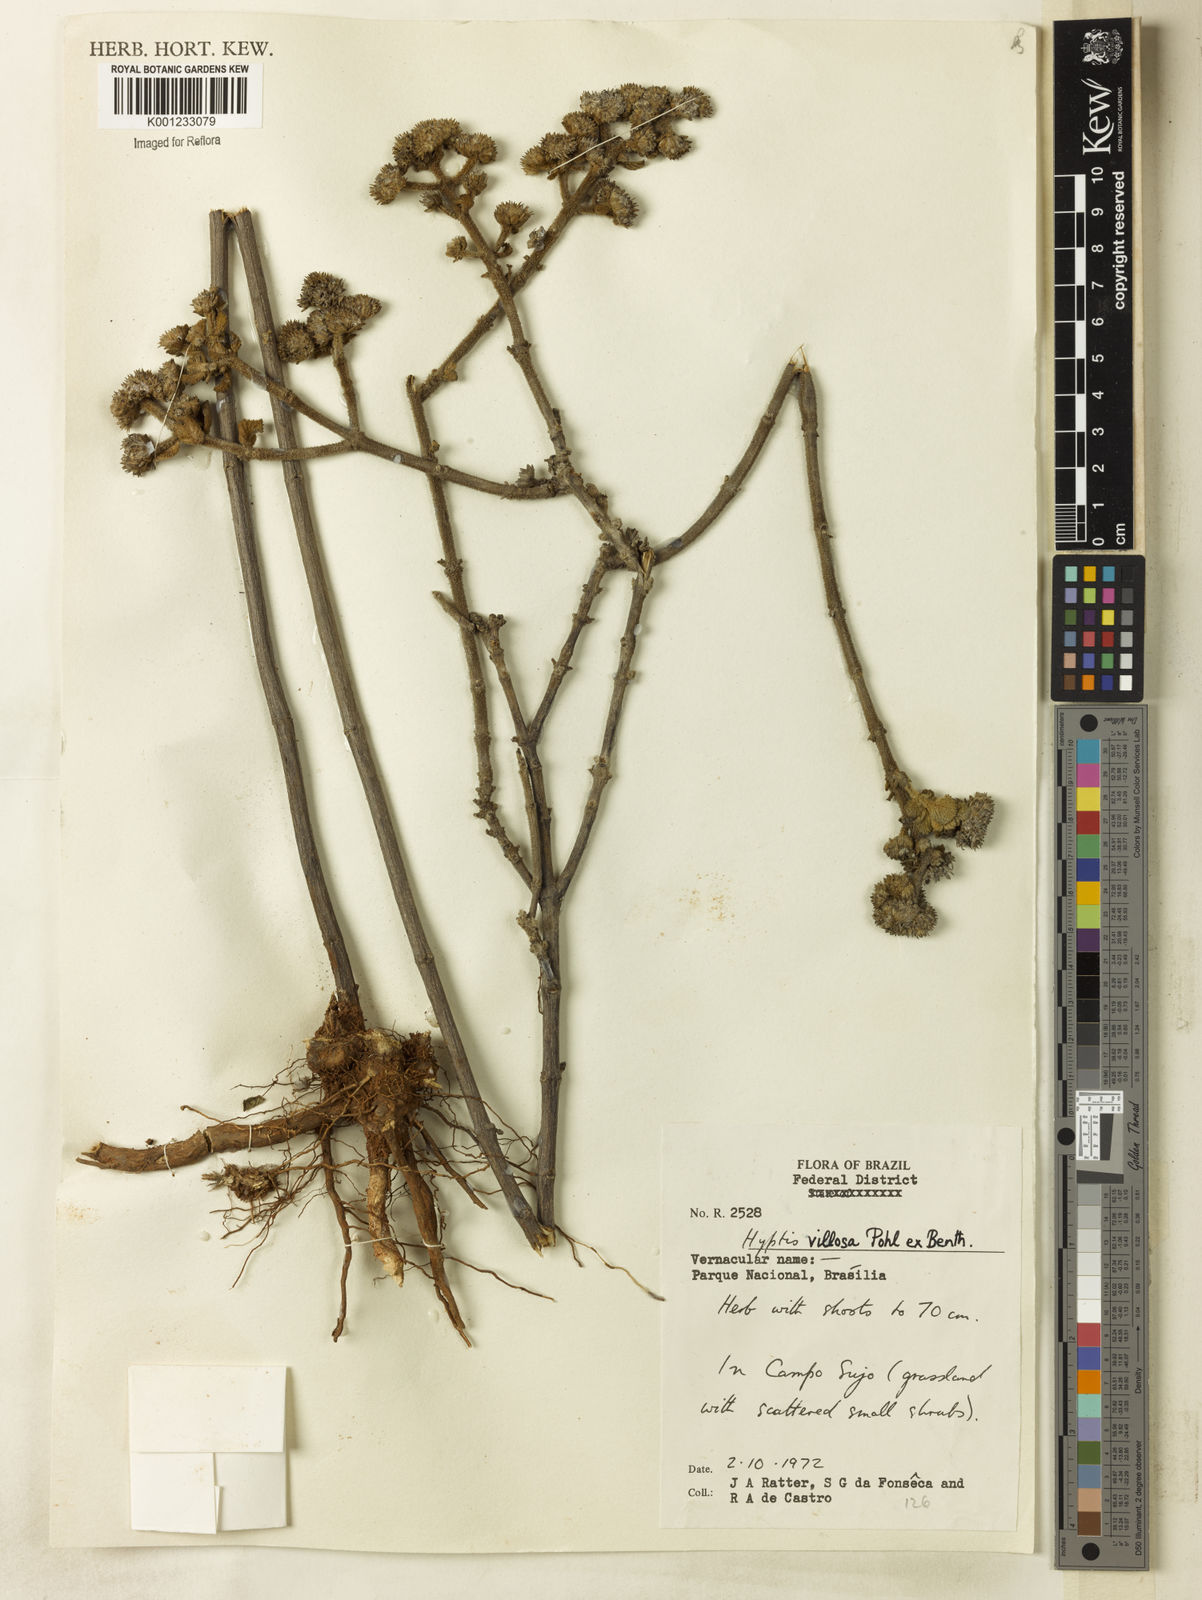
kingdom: Plantae
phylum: Tracheophyta
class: Magnoliopsida
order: Lamiales
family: Lamiaceae
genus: Hyptis
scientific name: Hyptis villosa
